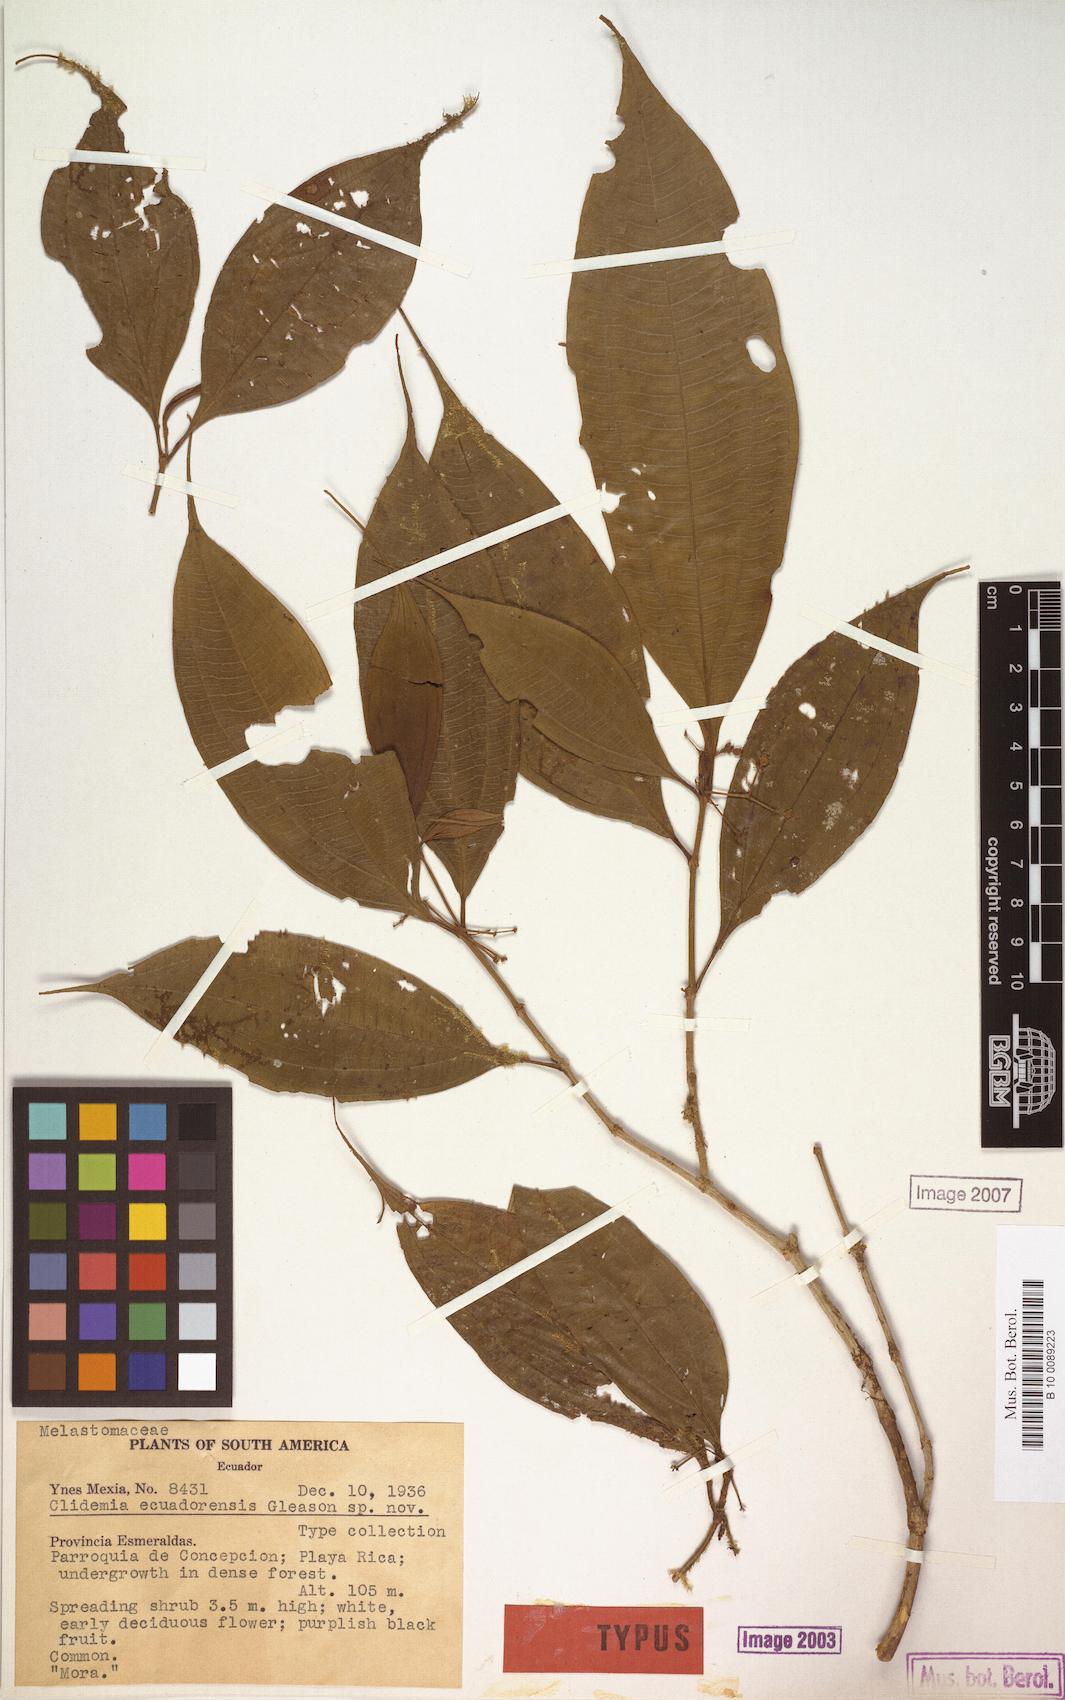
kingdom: Plantae
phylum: Tracheophyta
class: Magnoliopsida
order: Myrtales
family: Melastomataceae
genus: Miconia
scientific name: Miconia ecuadorensis
